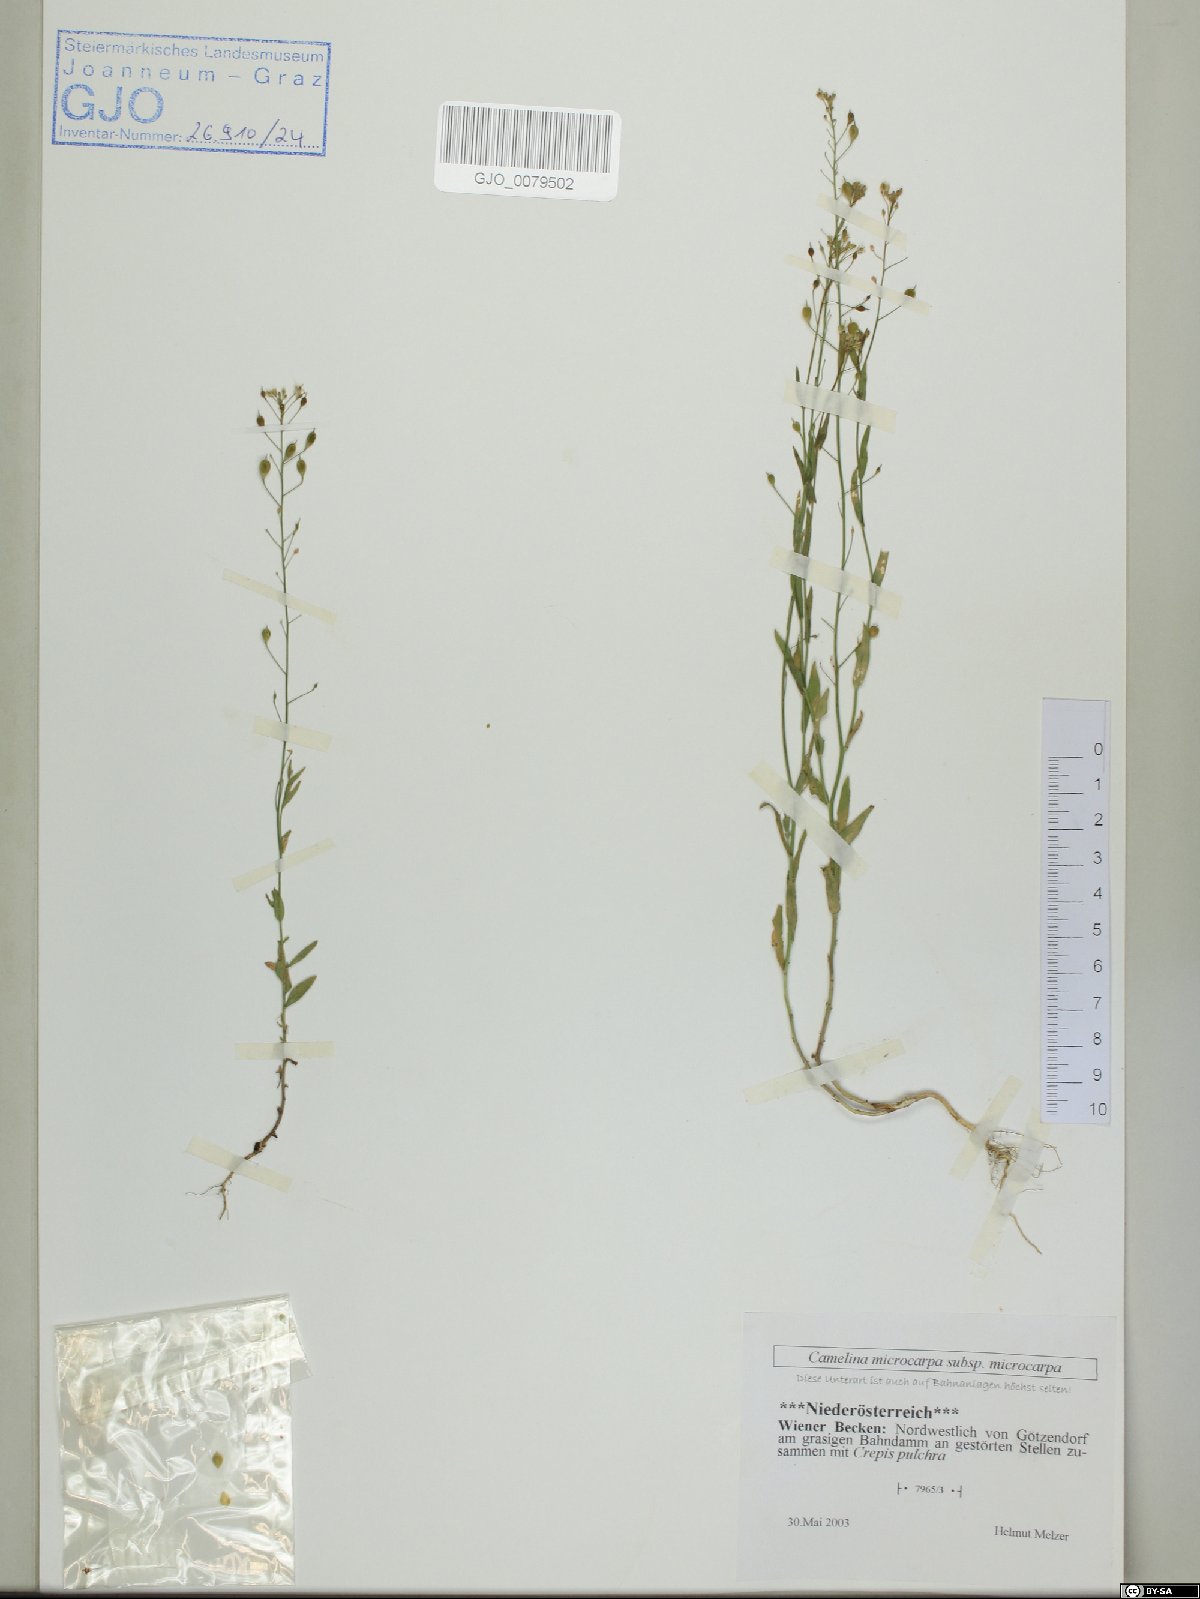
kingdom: Plantae
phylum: Tracheophyta
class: Magnoliopsida
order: Brassicales
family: Brassicaceae
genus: Camelina
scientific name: Camelina microcarpa
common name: Lesser gold-of-pleasure
